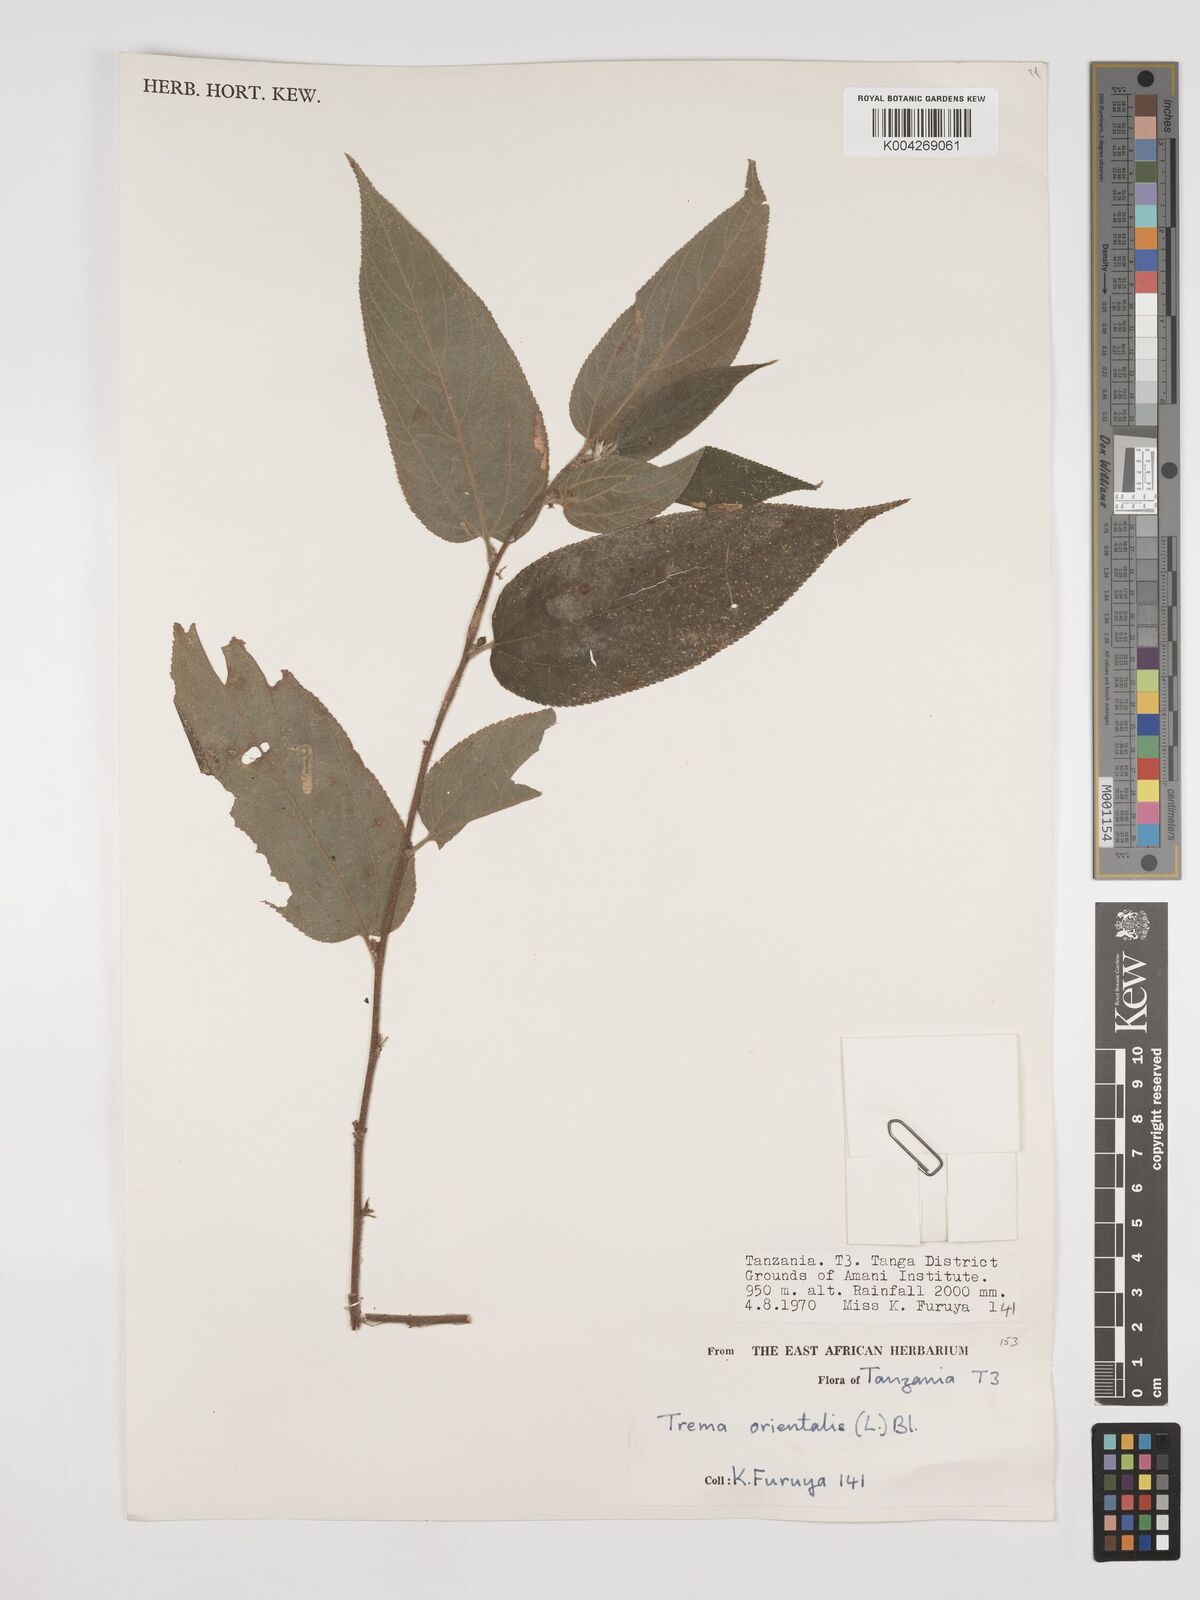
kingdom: Plantae
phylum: Tracheophyta
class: Magnoliopsida
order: Rosales
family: Cannabaceae
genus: Trema
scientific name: Trema orientale
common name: Indian charcoal tree
